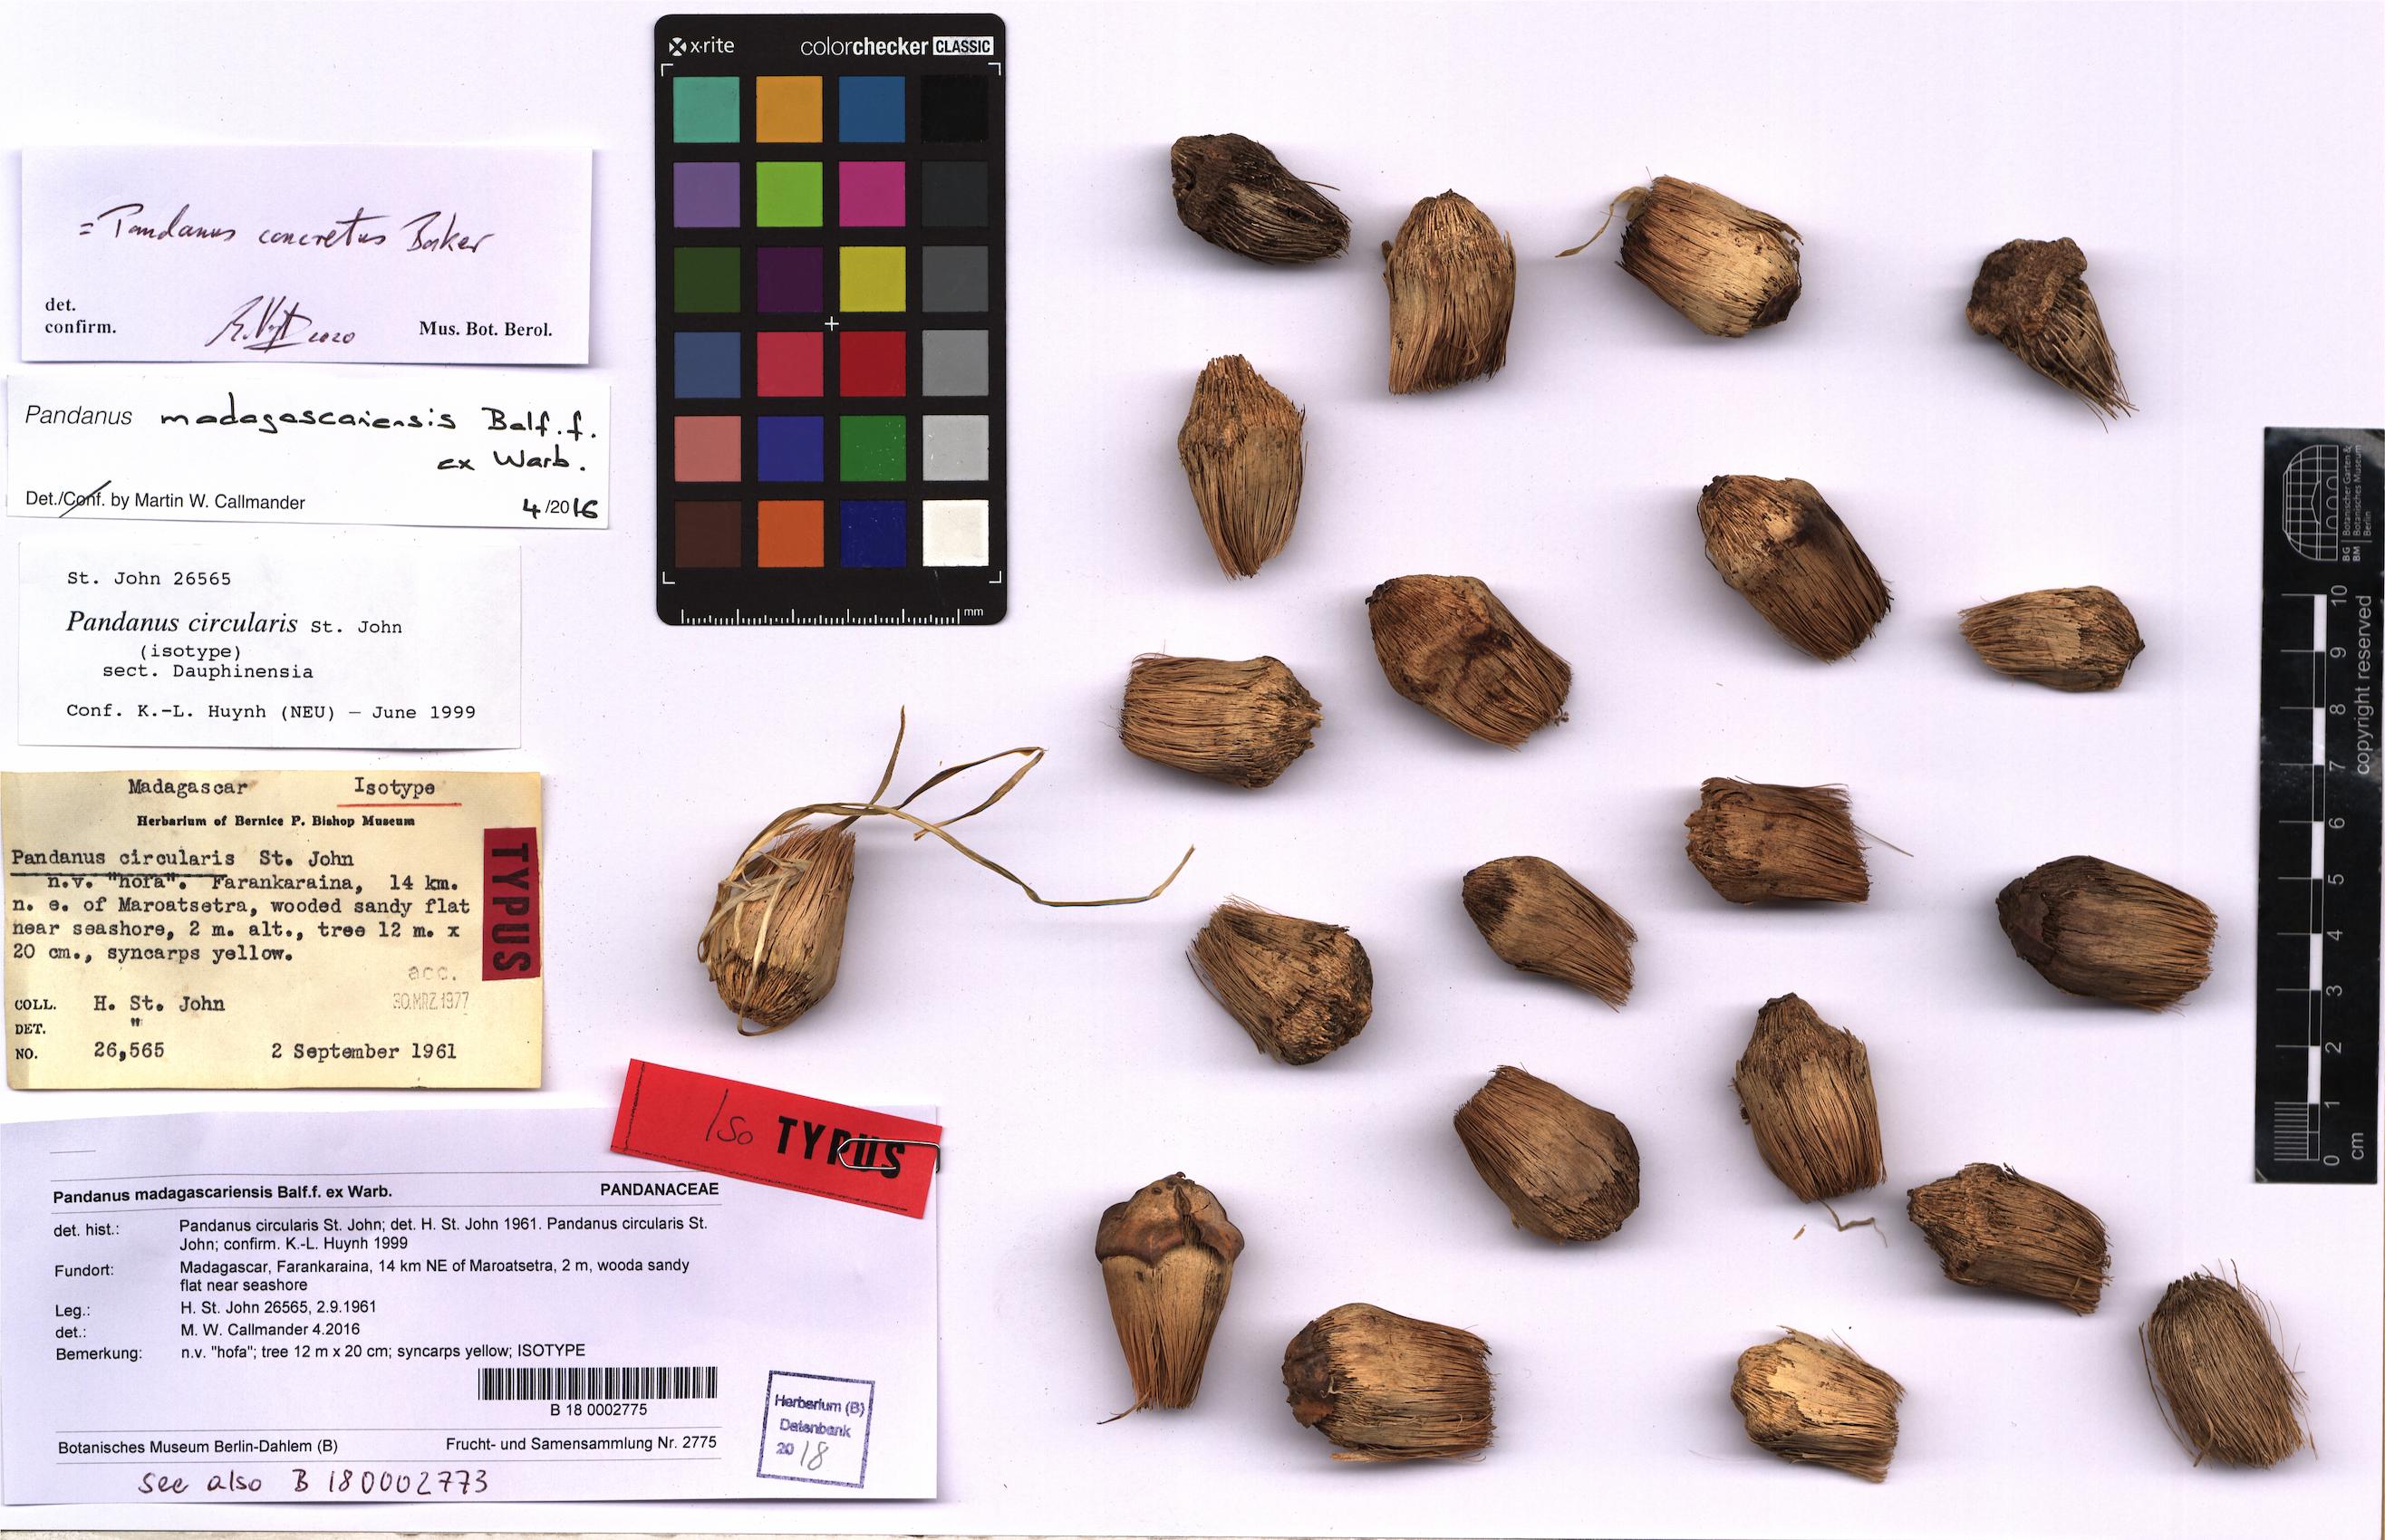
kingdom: Plantae
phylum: Tracheophyta
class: Liliopsida
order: Pandanales
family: Pandanaceae
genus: Pandanus
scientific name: Pandanus concretus
